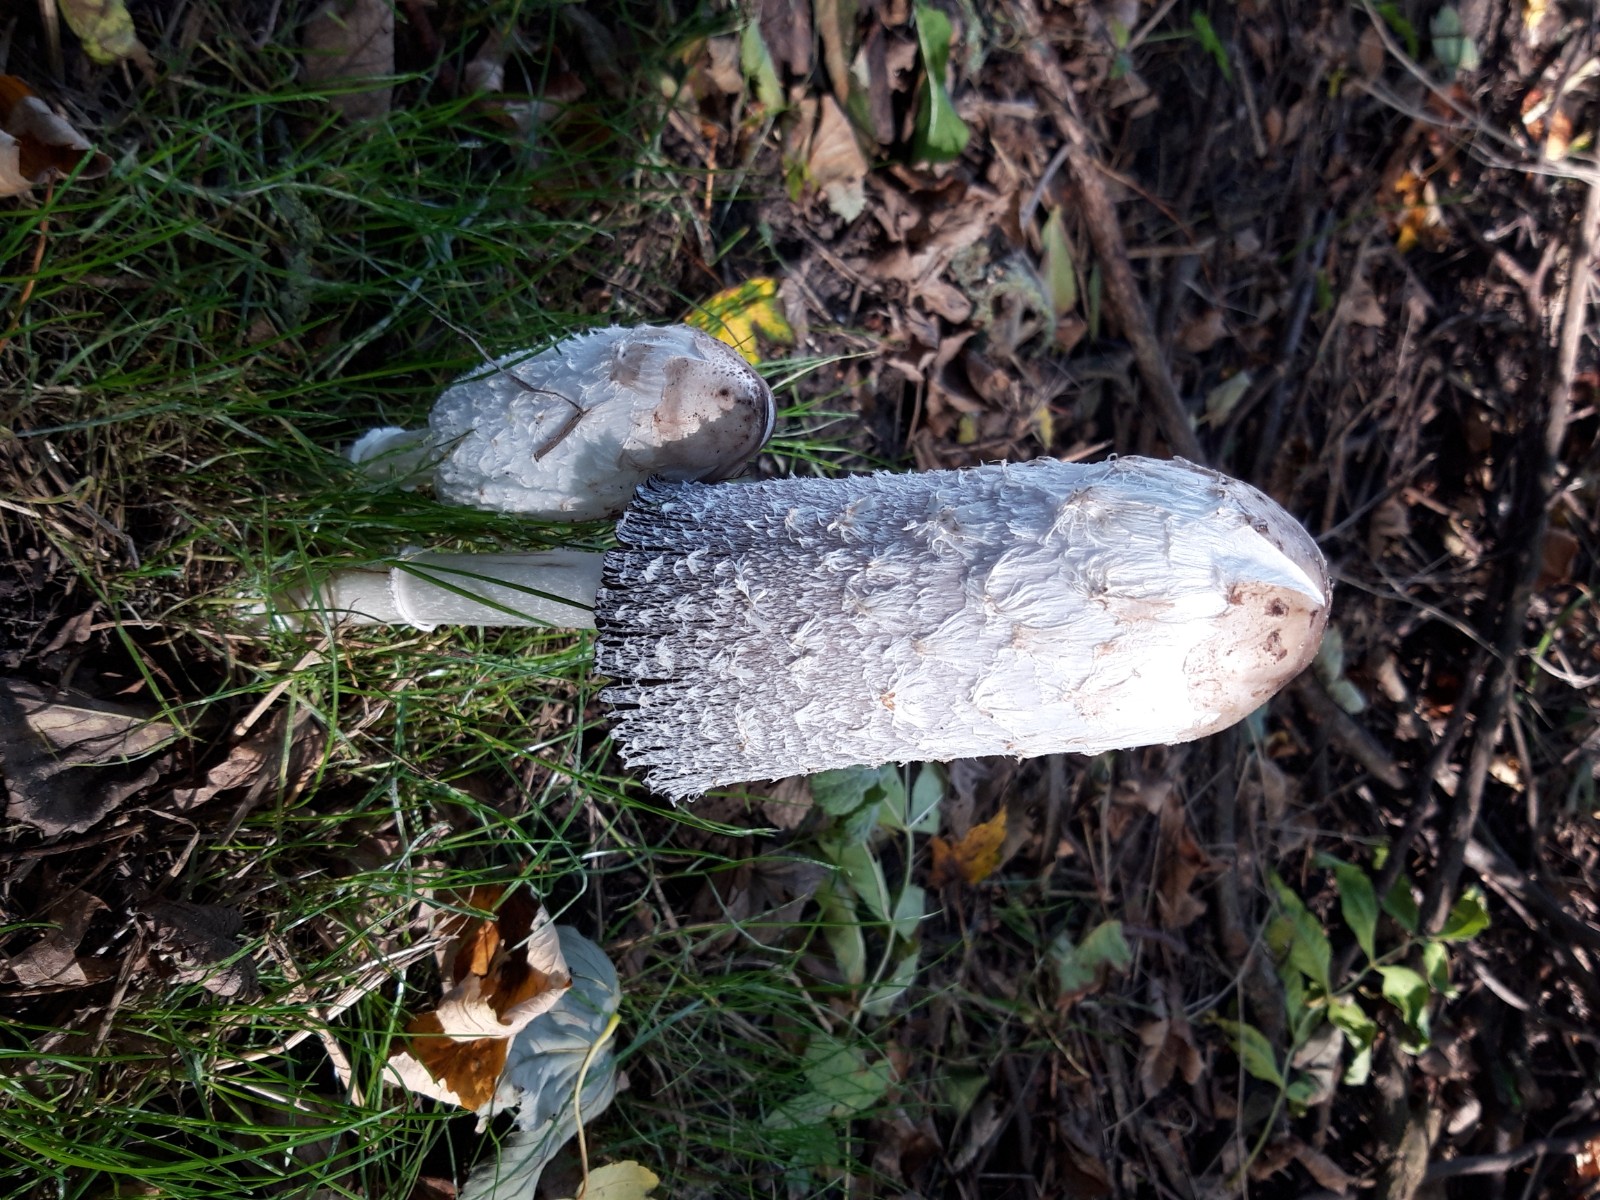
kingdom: Fungi
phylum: Basidiomycota
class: Agaricomycetes
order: Agaricales
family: Agaricaceae
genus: Coprinus
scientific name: Coprinus comatus
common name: stor parykhat
